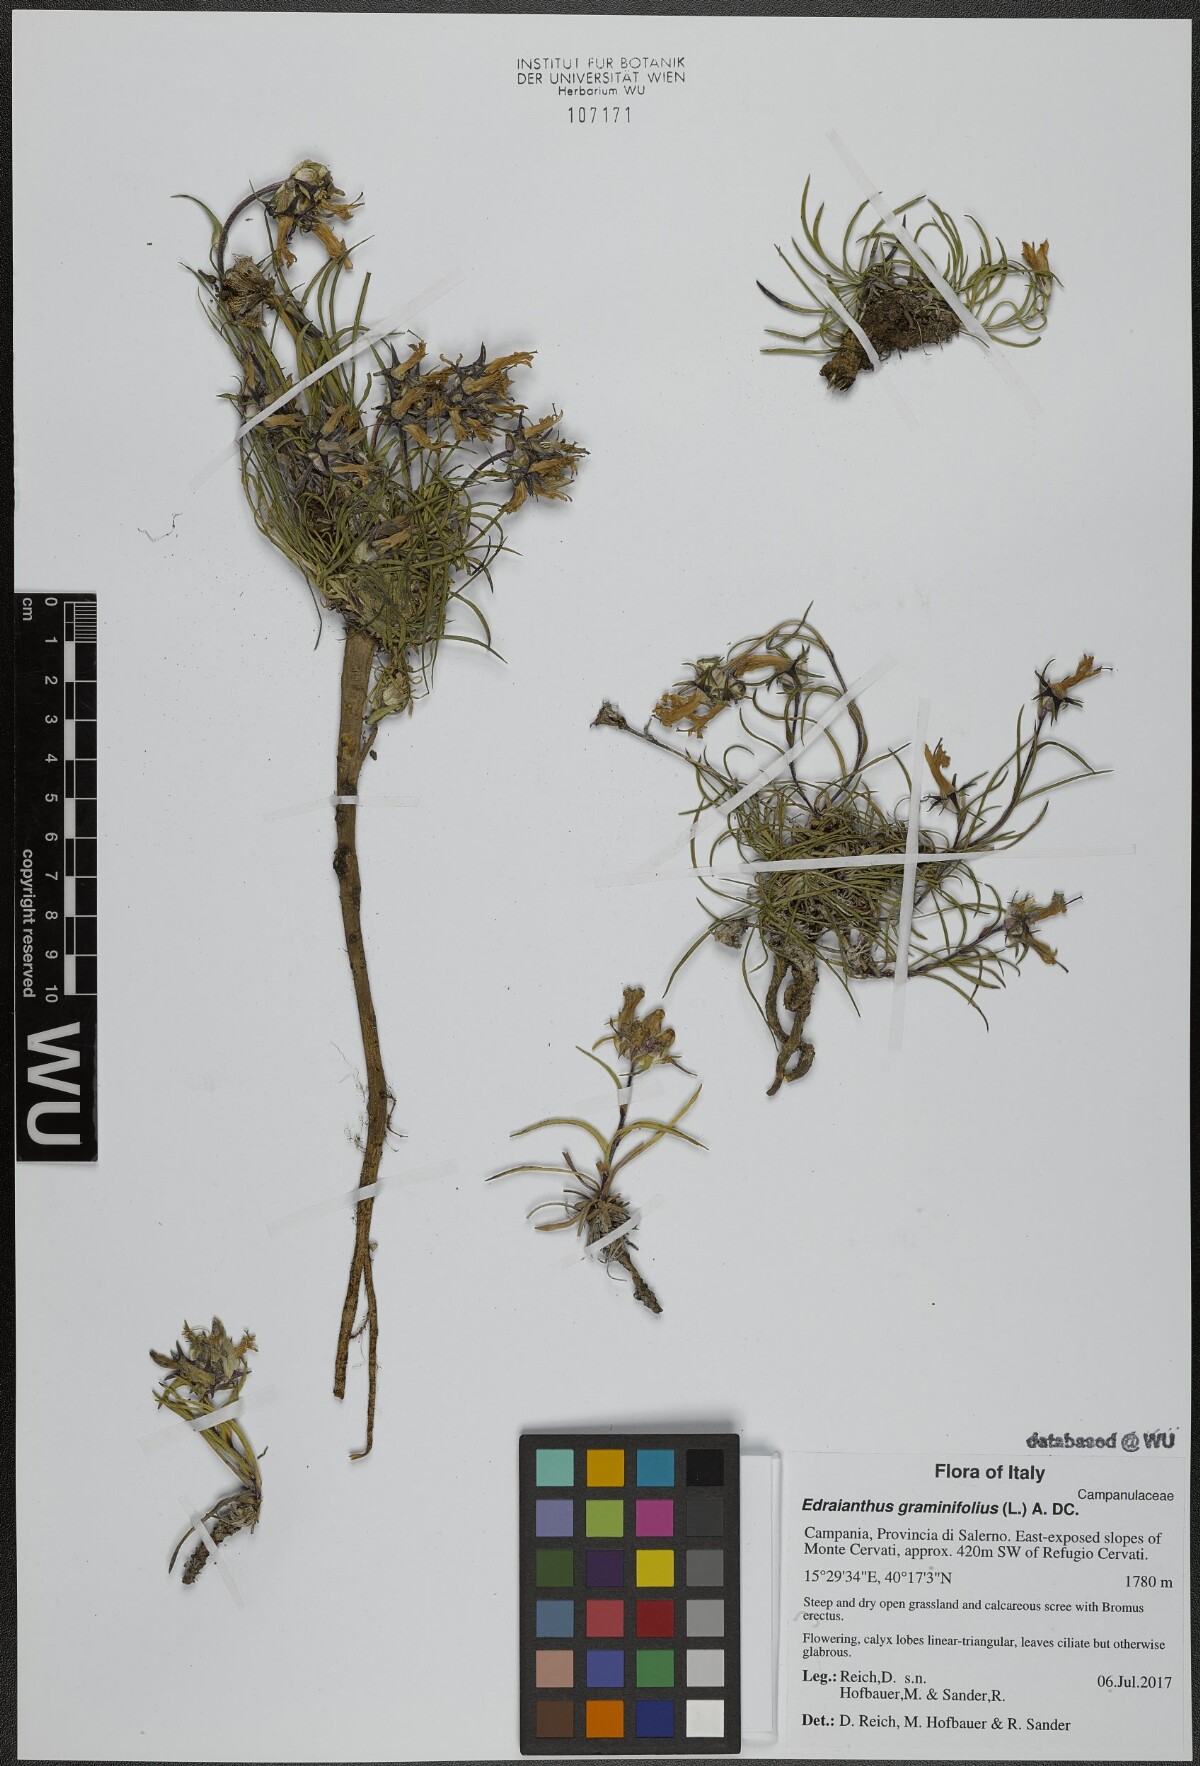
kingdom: Plantae
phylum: Tracheophyta
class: Magnoliopsida
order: Asterales
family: Campanulaceae
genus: Edraianthus
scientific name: Edraianthus graminifolius
